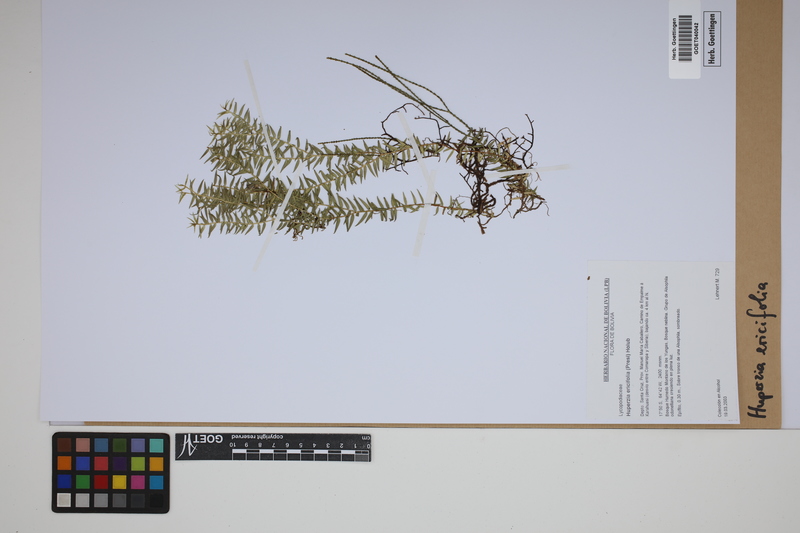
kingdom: Plantae
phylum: Tracheophyta
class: Lycopodiopsida
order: Lycopodiales
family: Lycopodiaceae
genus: Phlegmariurus
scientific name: Phlegmariurus ericifolius
